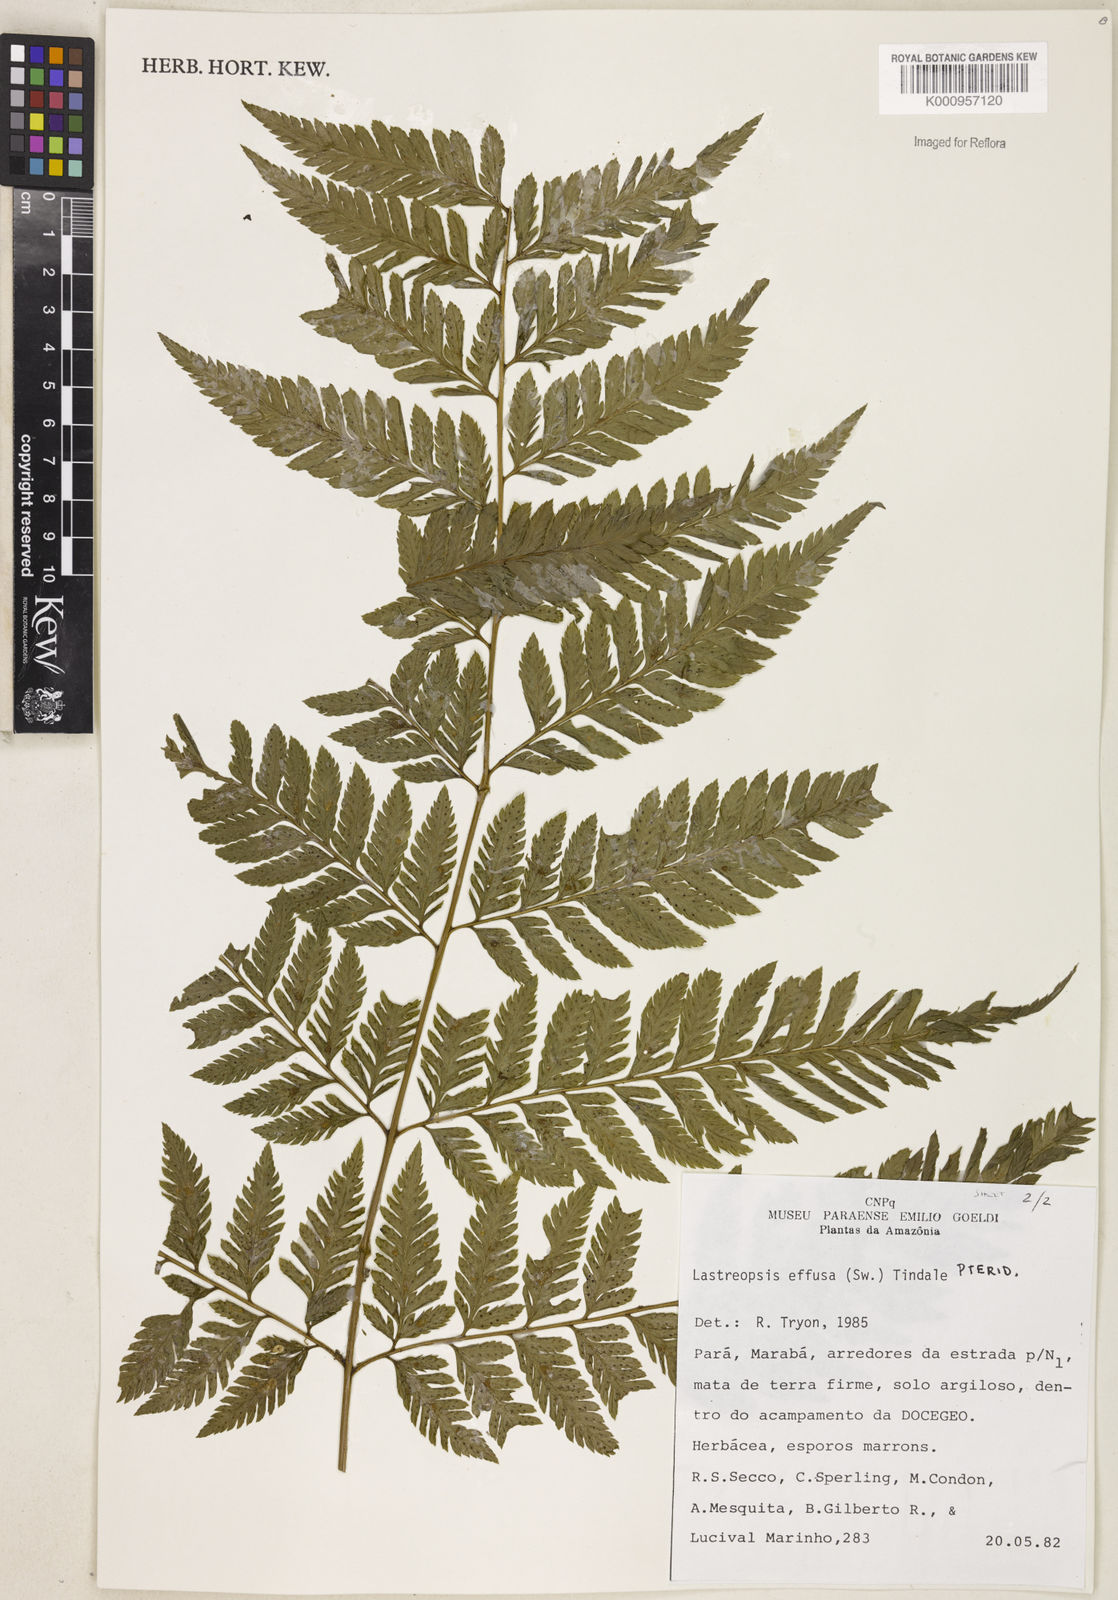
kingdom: Plantae
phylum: Tracheophyta
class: Polypodiopsida
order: Polypodiales
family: Dryopteridaceae
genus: Parapolystichum
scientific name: Parapolystichum effusum
